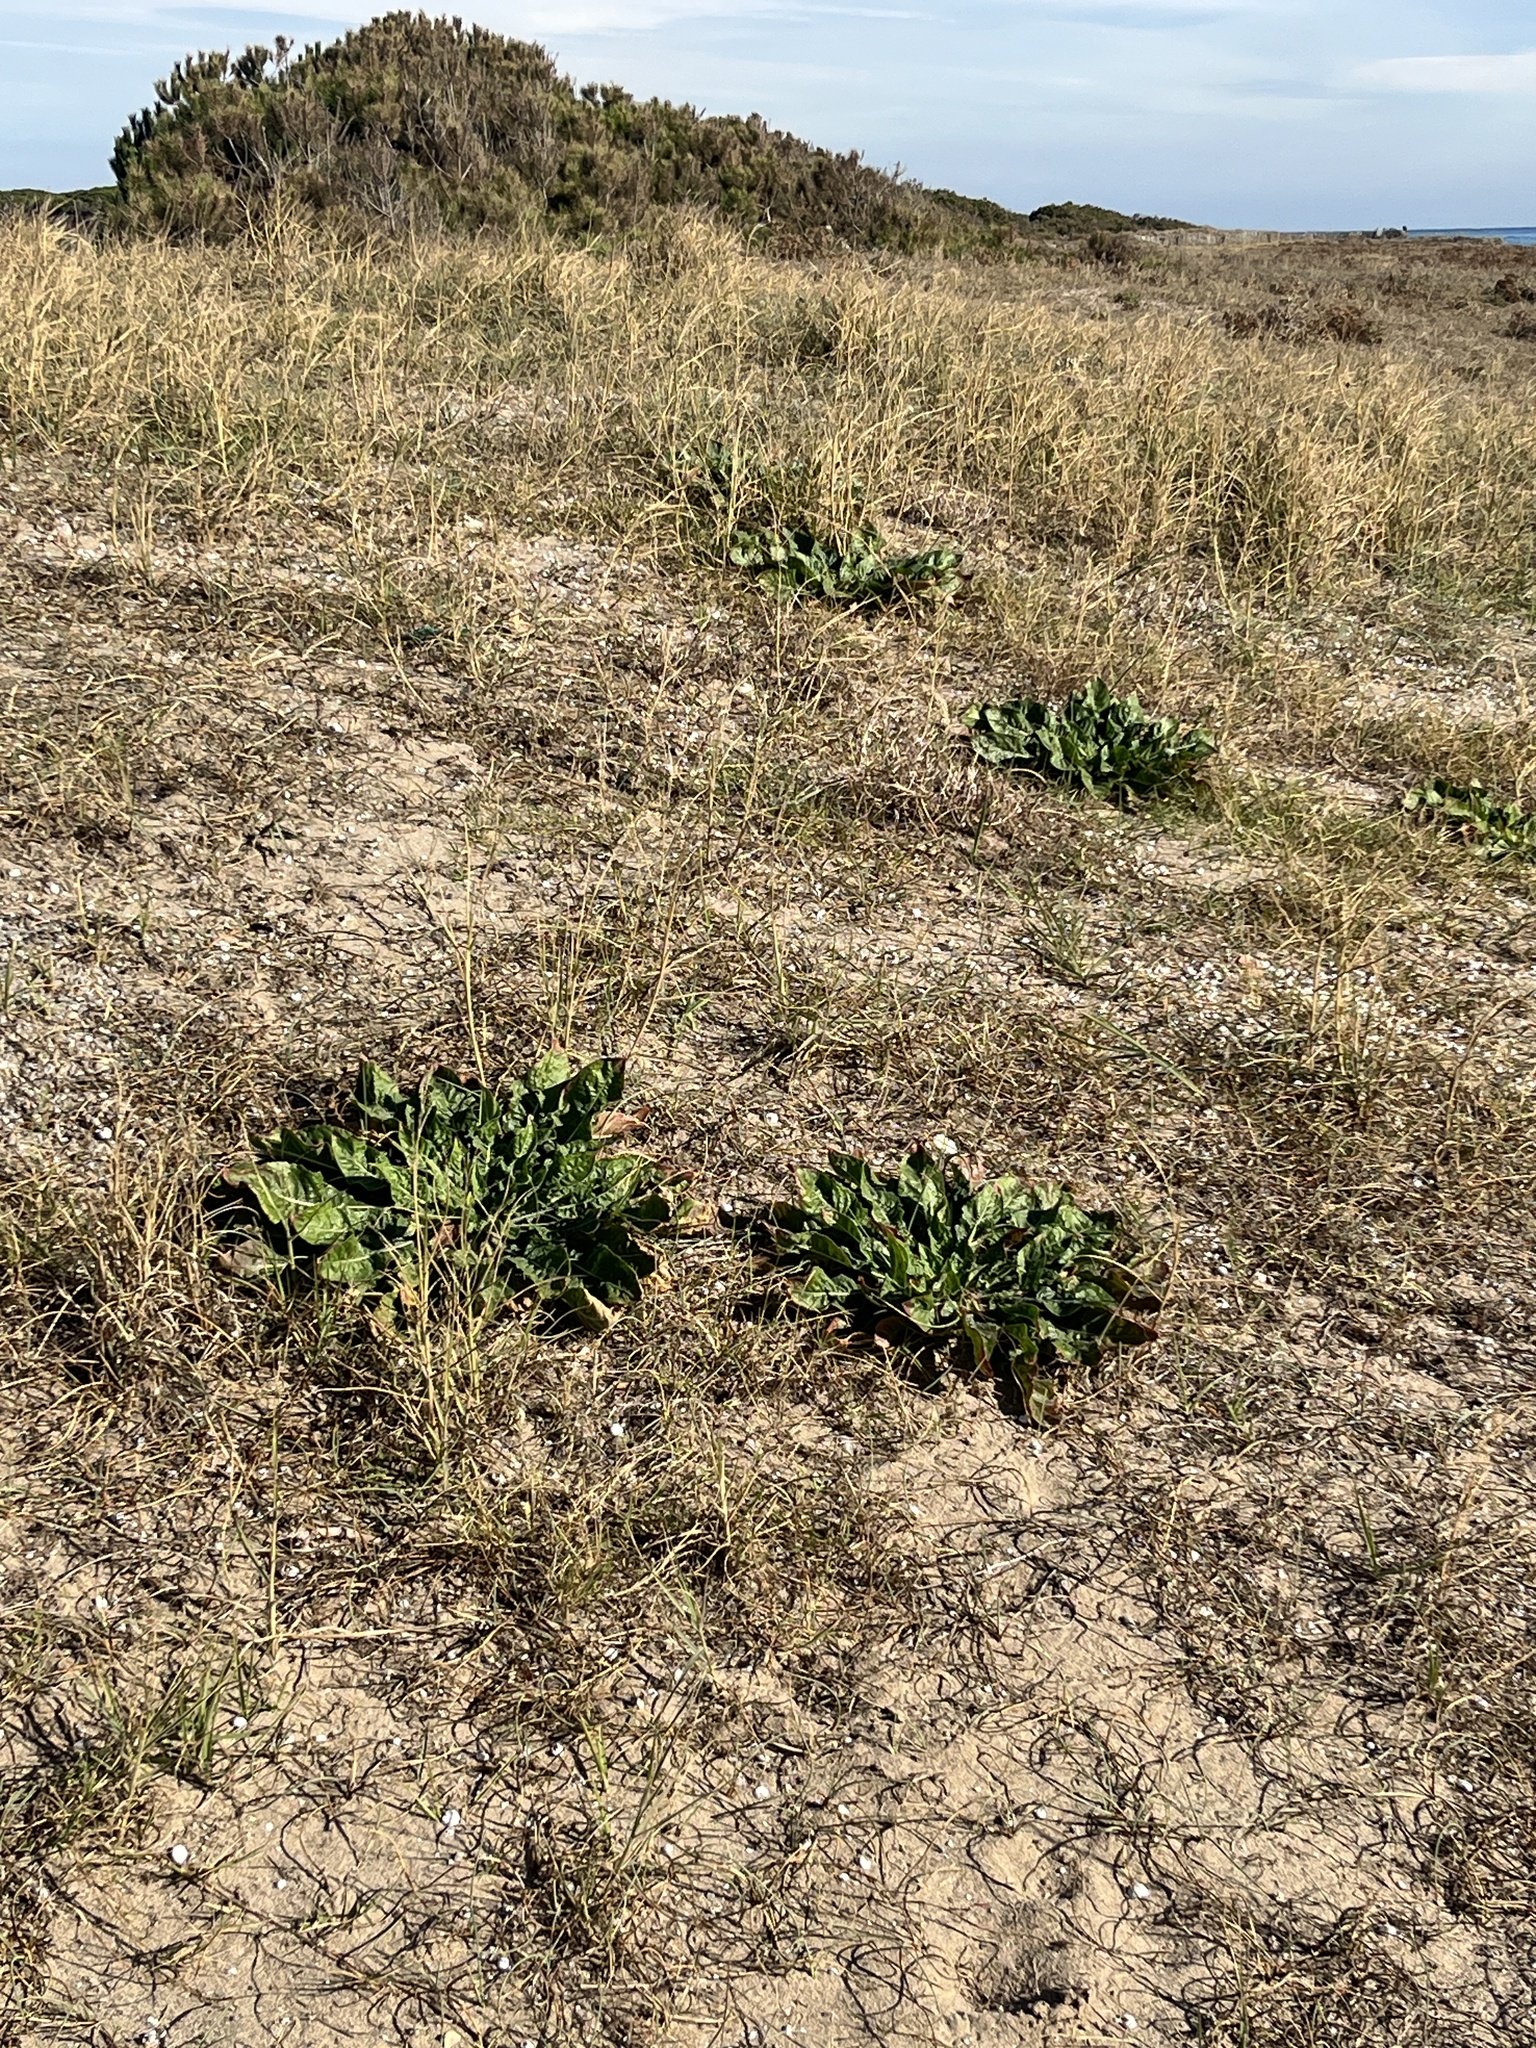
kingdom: Plantae
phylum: Tracheophyta
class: Magnoliopsida
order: Myrtales
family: Onagraceae
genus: Oenothera
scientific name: Oenothera glazioviana
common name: Large-flowered evening-primrose
